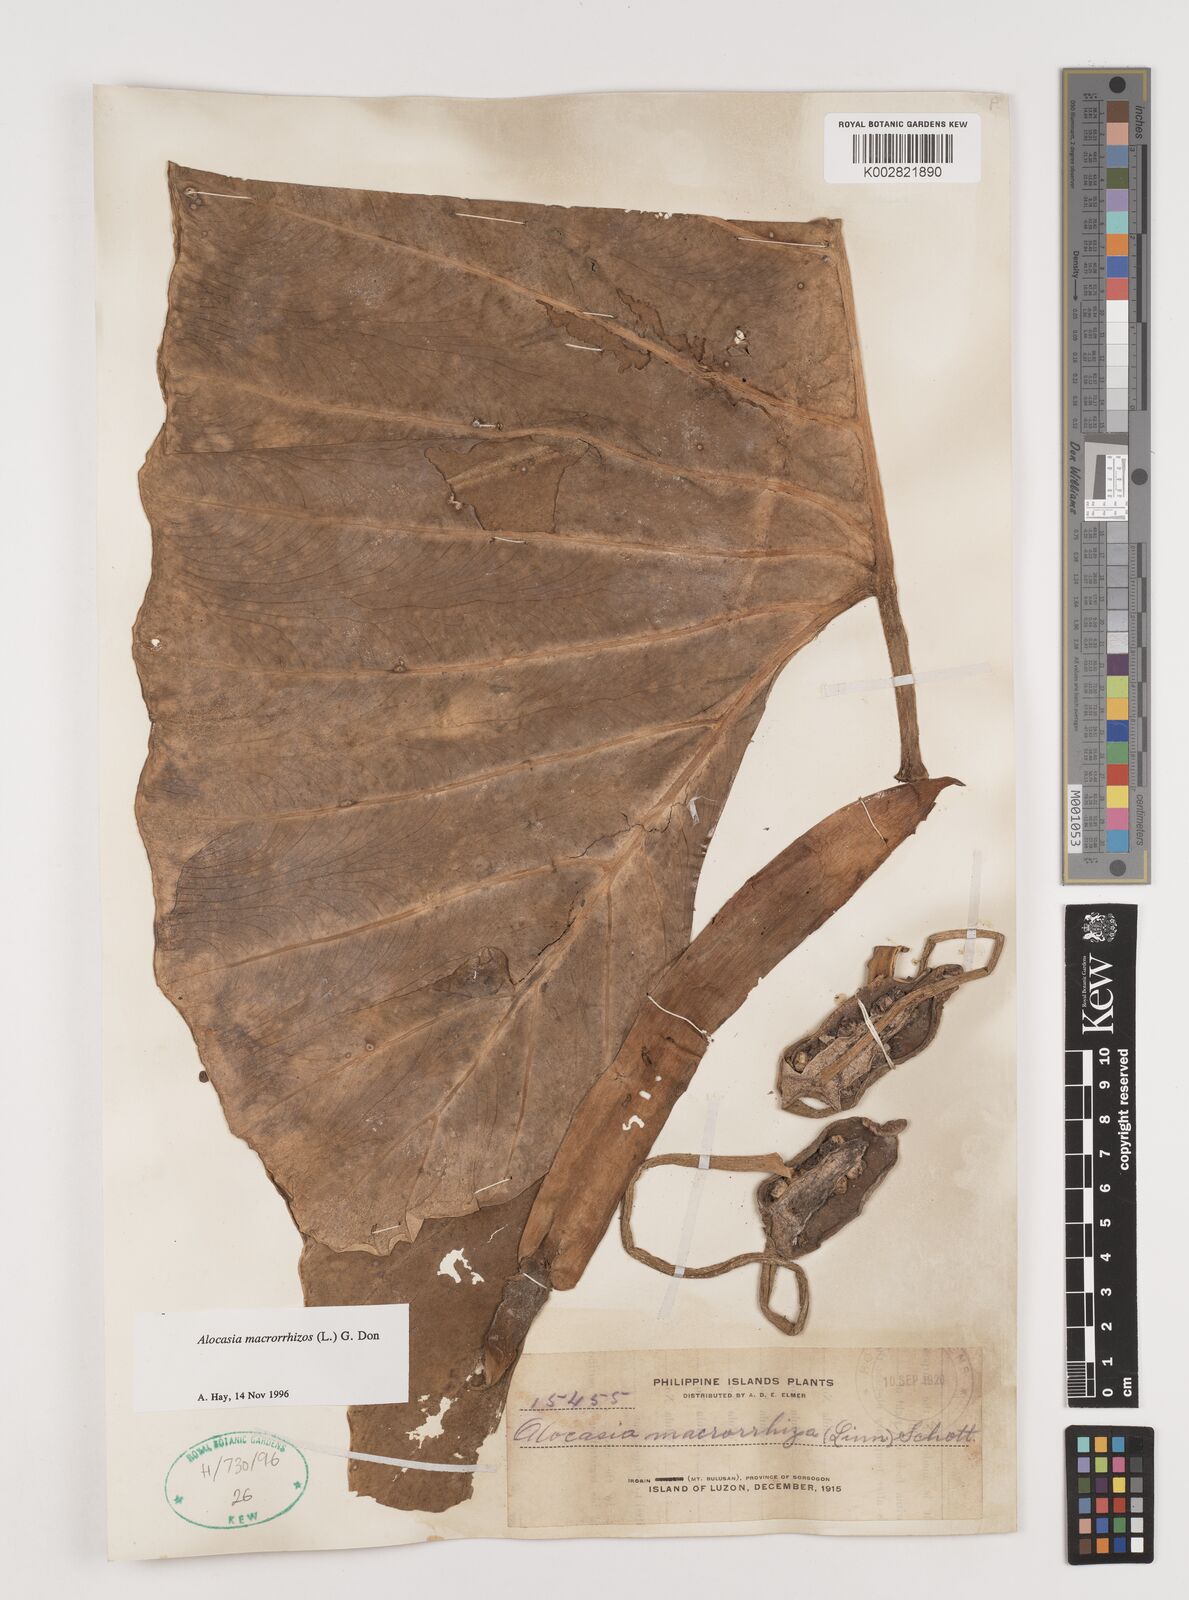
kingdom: Plantae
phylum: Tracheophyta
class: Liliopsida
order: Alismatales
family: Araceae
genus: Alocasia
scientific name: Alocasia macrorrhizos
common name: Giant taro
